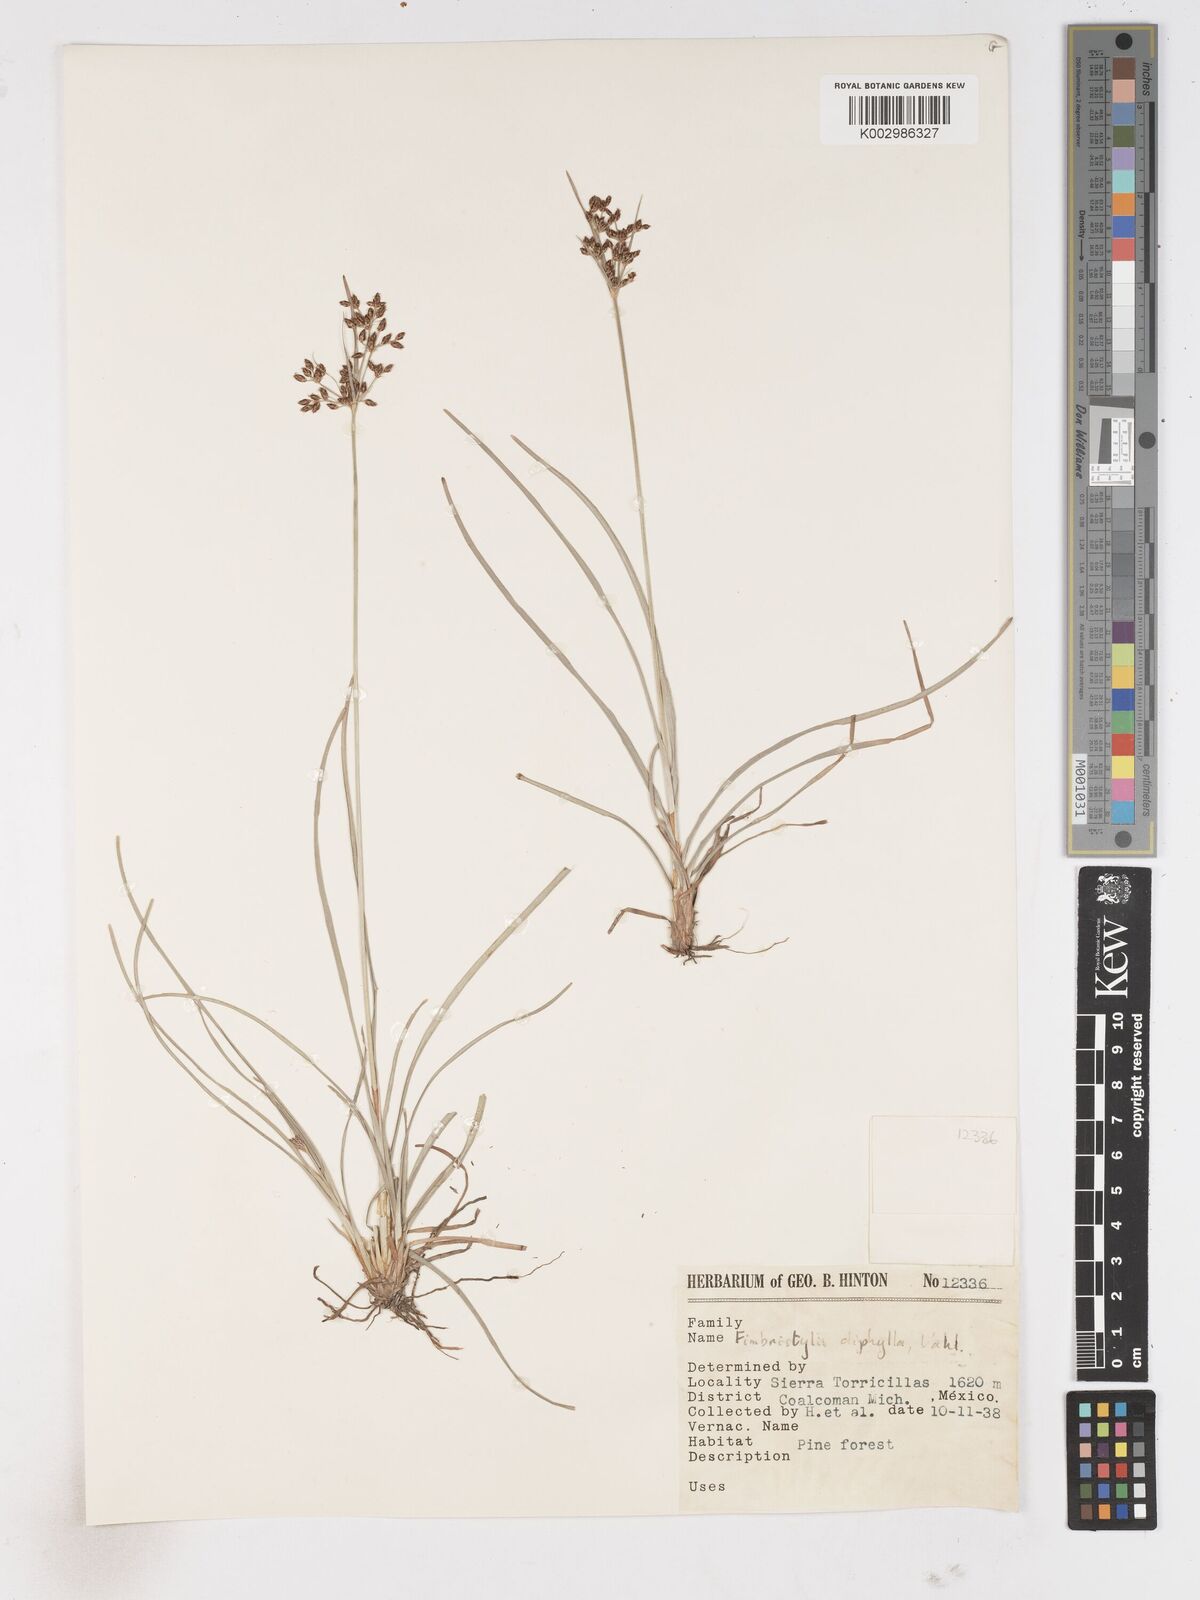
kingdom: Plantae
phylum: Tracheophyta
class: Liliopsida
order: Poales
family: Cyperaceae
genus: Fimbristylis
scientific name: Fimbristylis dichotoma
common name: Forked fimbry
